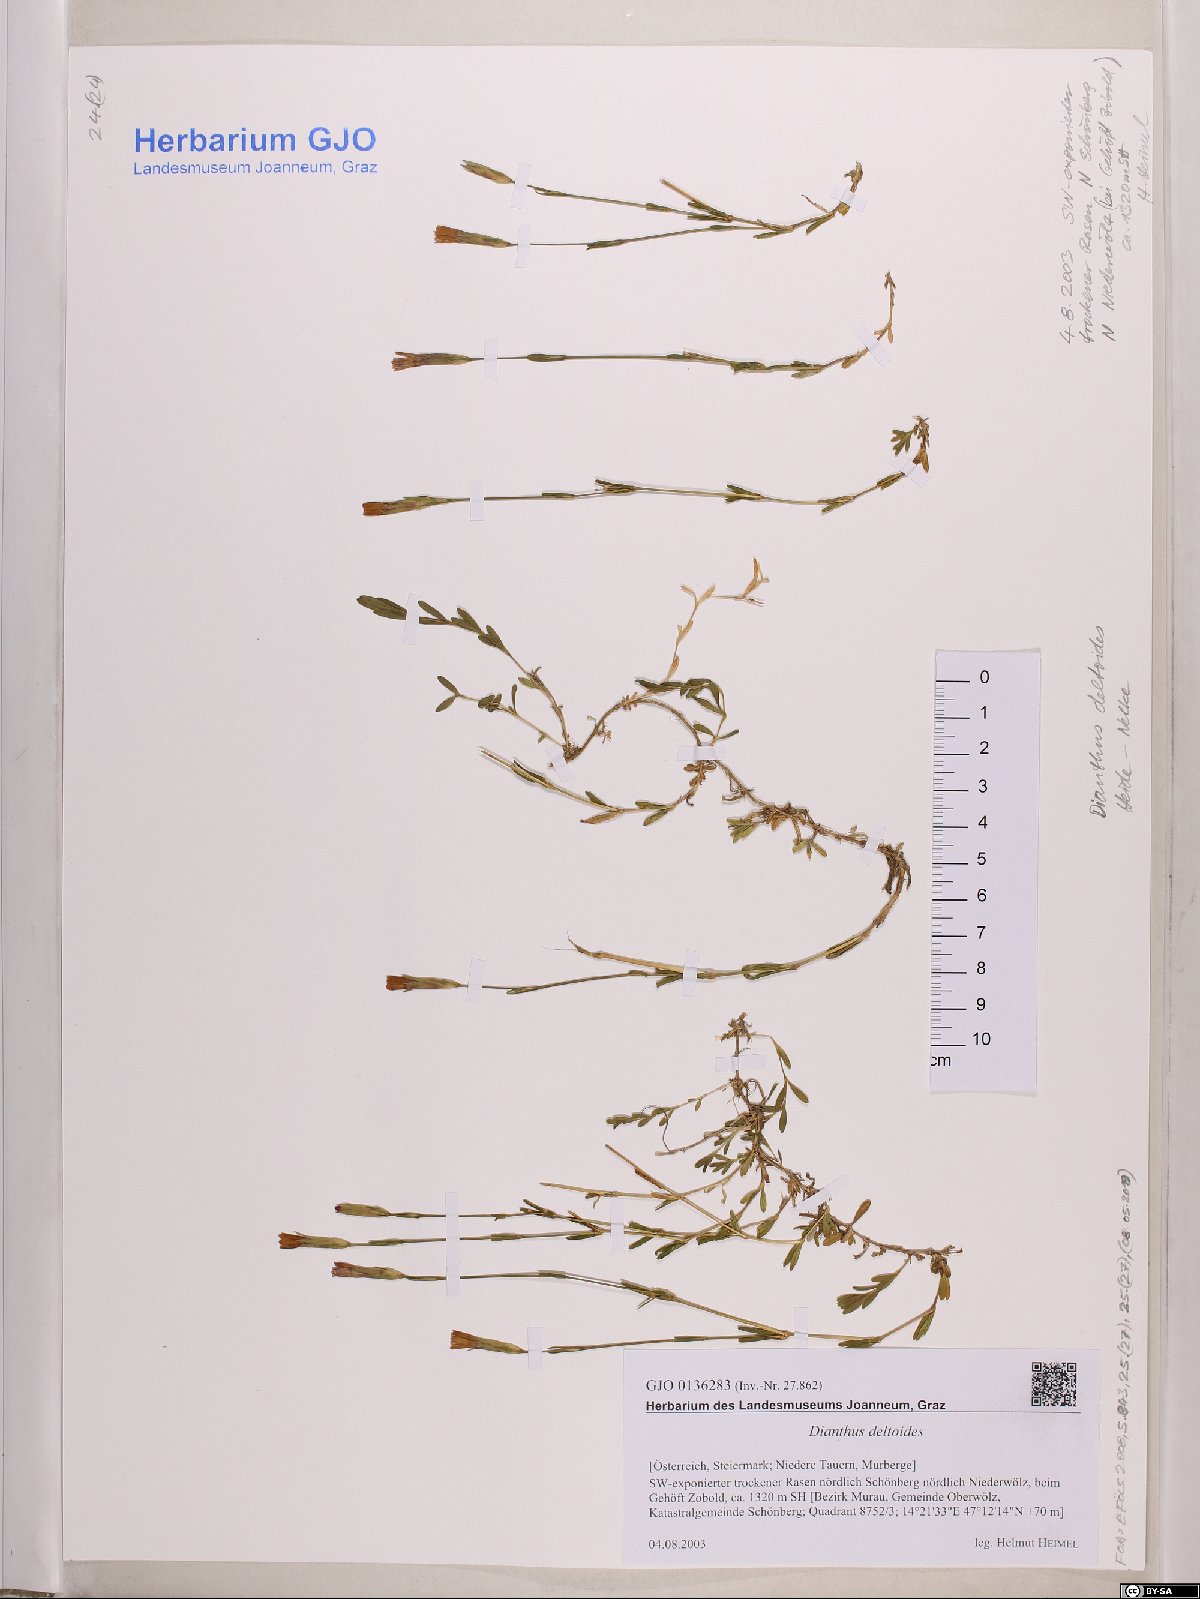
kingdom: Plantae
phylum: Tracheophyta
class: Magnoliopsida
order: Caryophyllales
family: Caryophyllaceae
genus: Dianthus
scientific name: Dianthus deltoides
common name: Maiden pink
